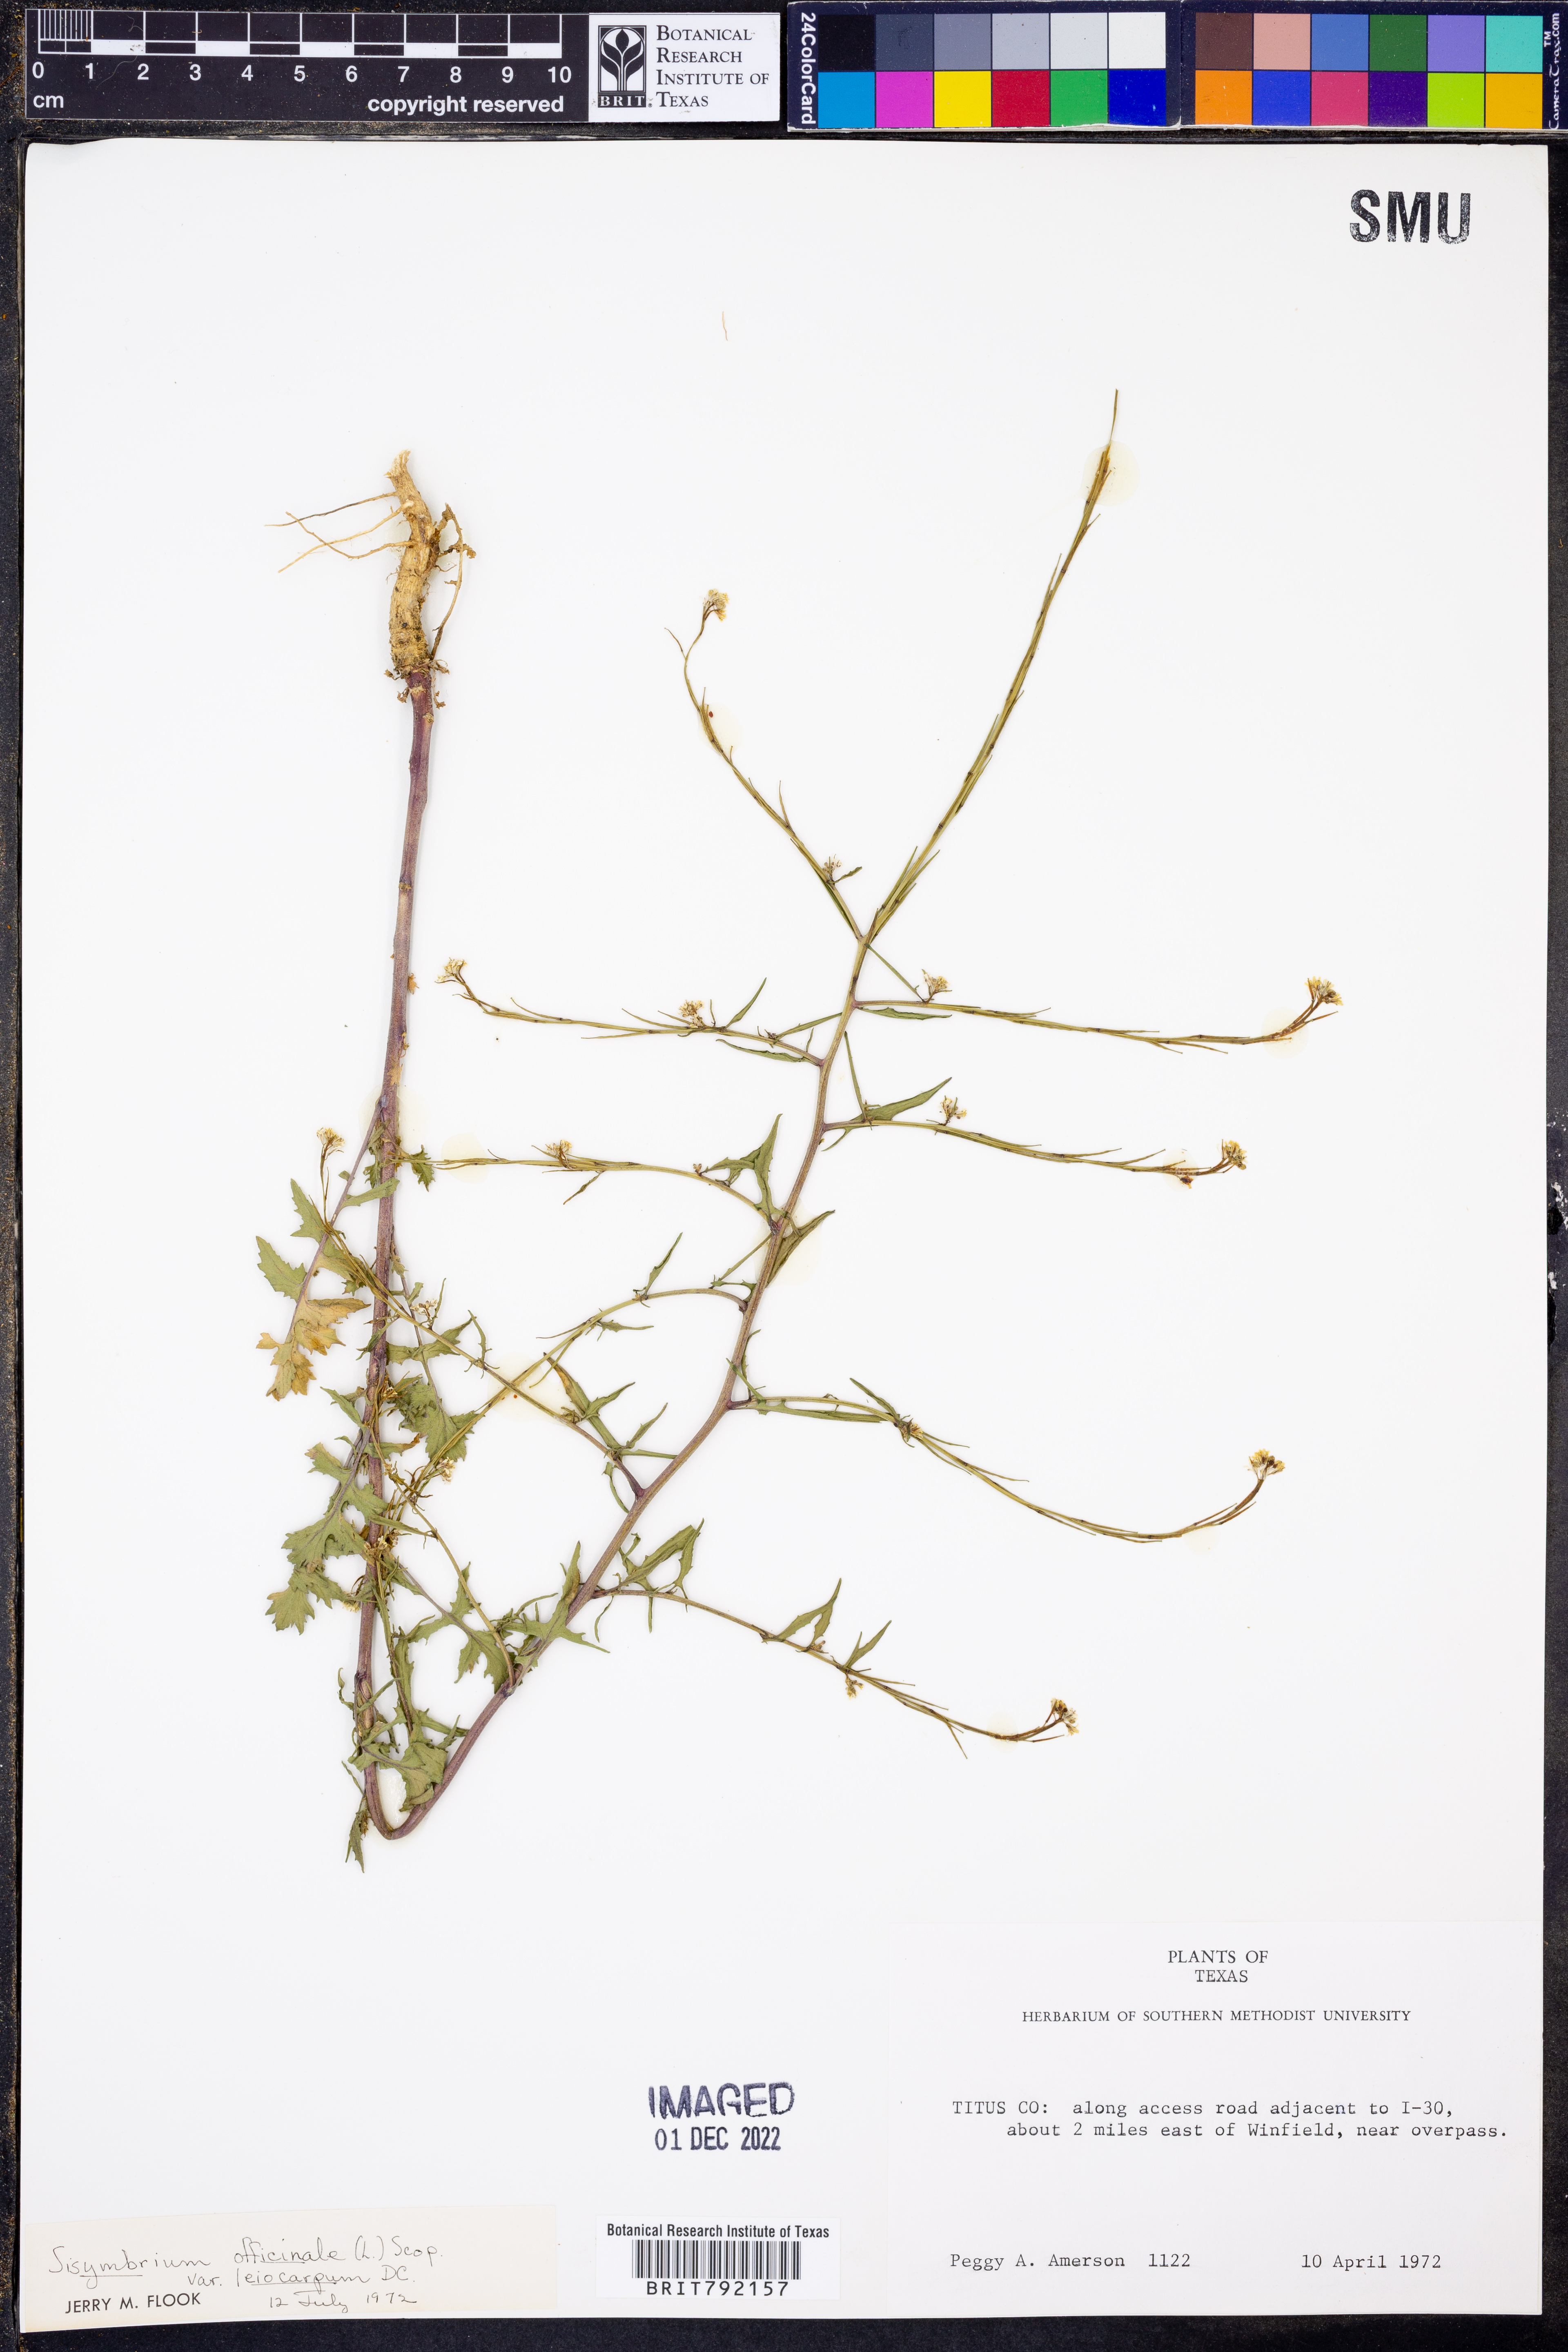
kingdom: Plantae
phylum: Tracheophyta
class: Magnoliopsida
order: Brassicales
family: Brassicaceae
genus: Sisymbrium
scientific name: Sisymbrium officinale
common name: Hedge mustard
